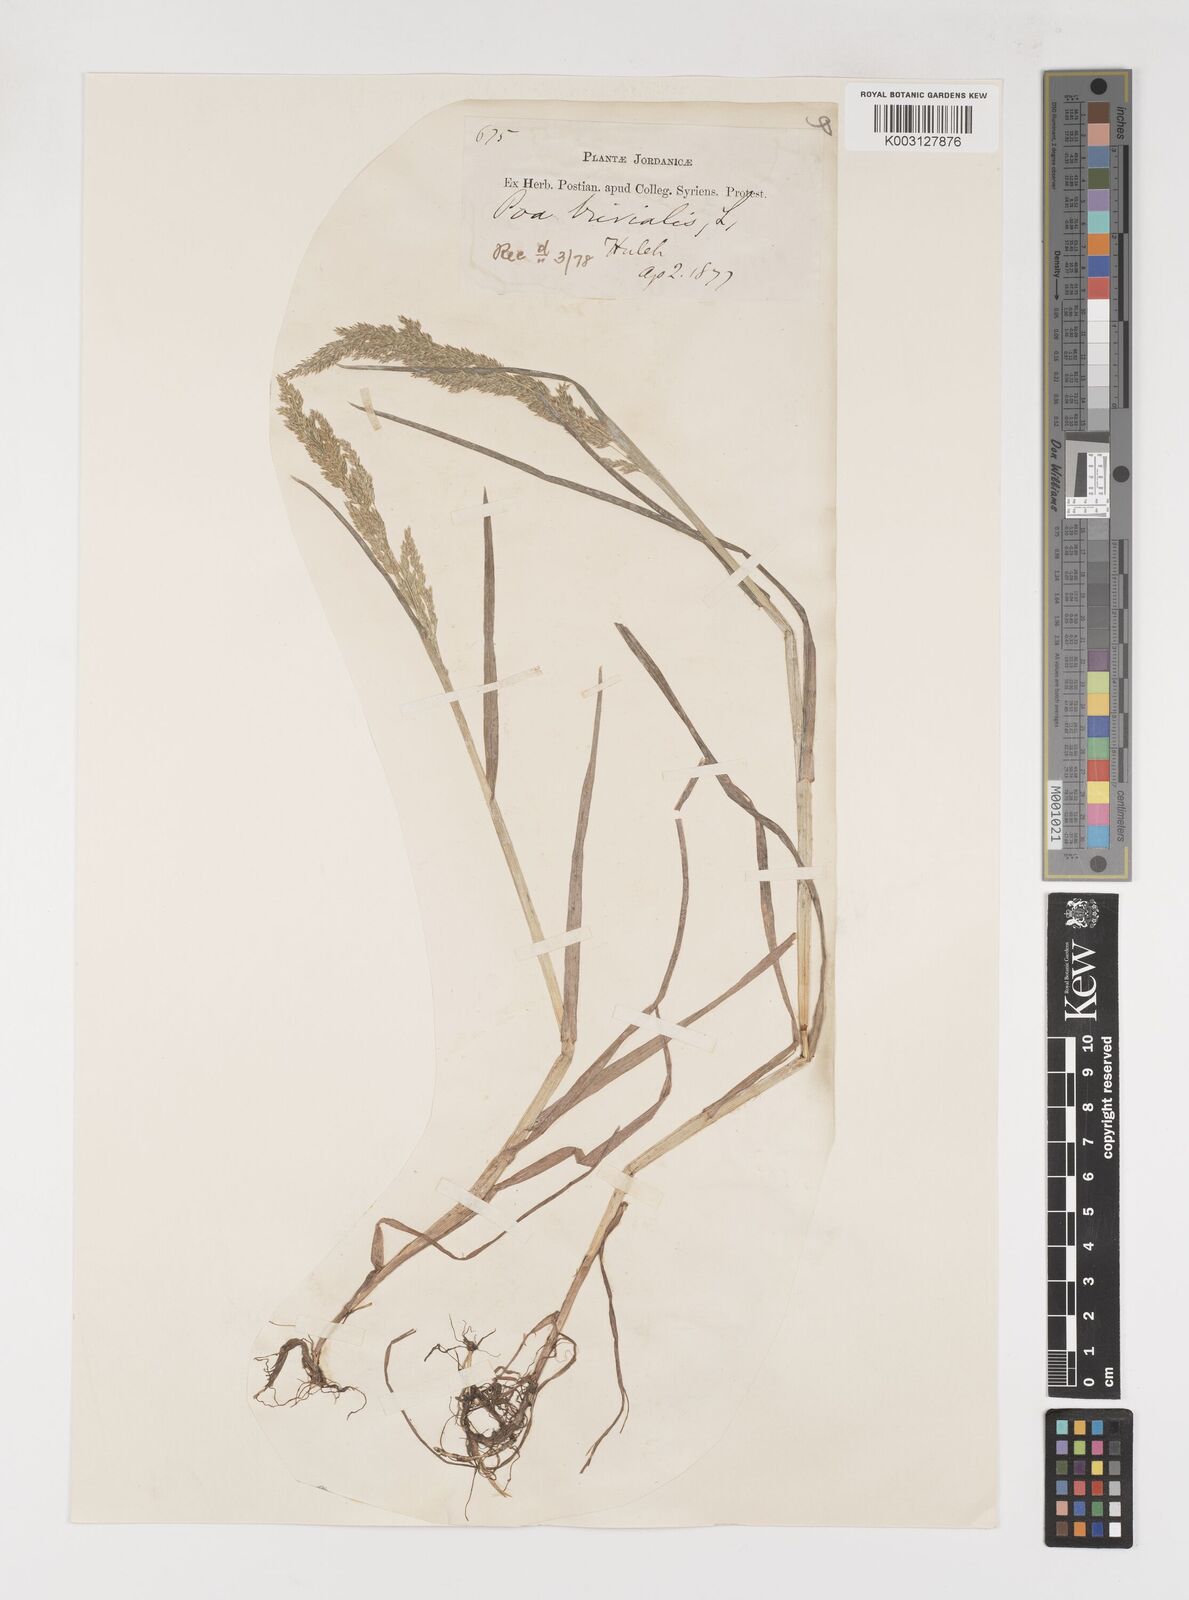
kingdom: Plantae
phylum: Tracheophyta
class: Liliopsida
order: Poales
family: Poaceae
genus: Poa
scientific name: Poa trivialis
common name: Rough bluegrass
